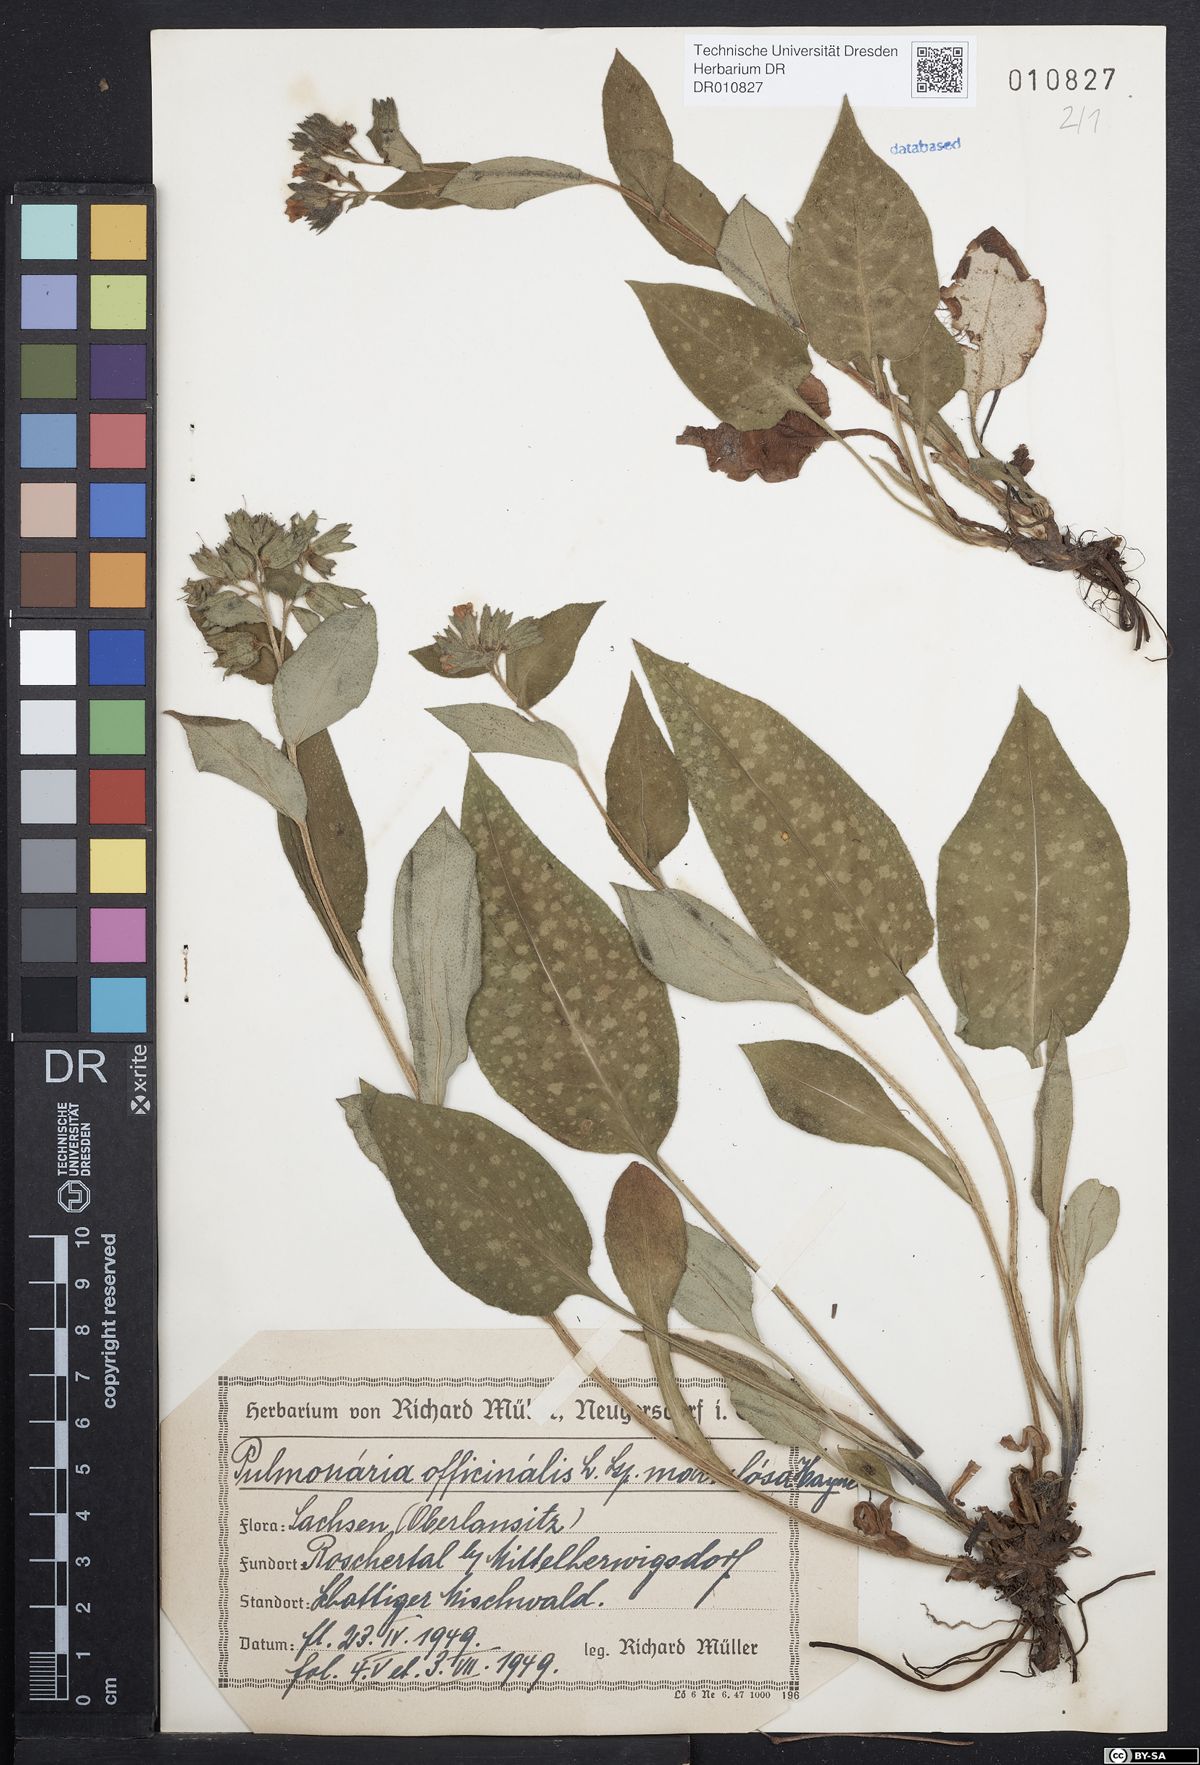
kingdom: Plantae
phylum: Tracheophyta
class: Magnoliopsida
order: Boraginales
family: Boraginaceae
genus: Pulmonaria
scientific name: Pulmonaria officinalis
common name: Lungwort
